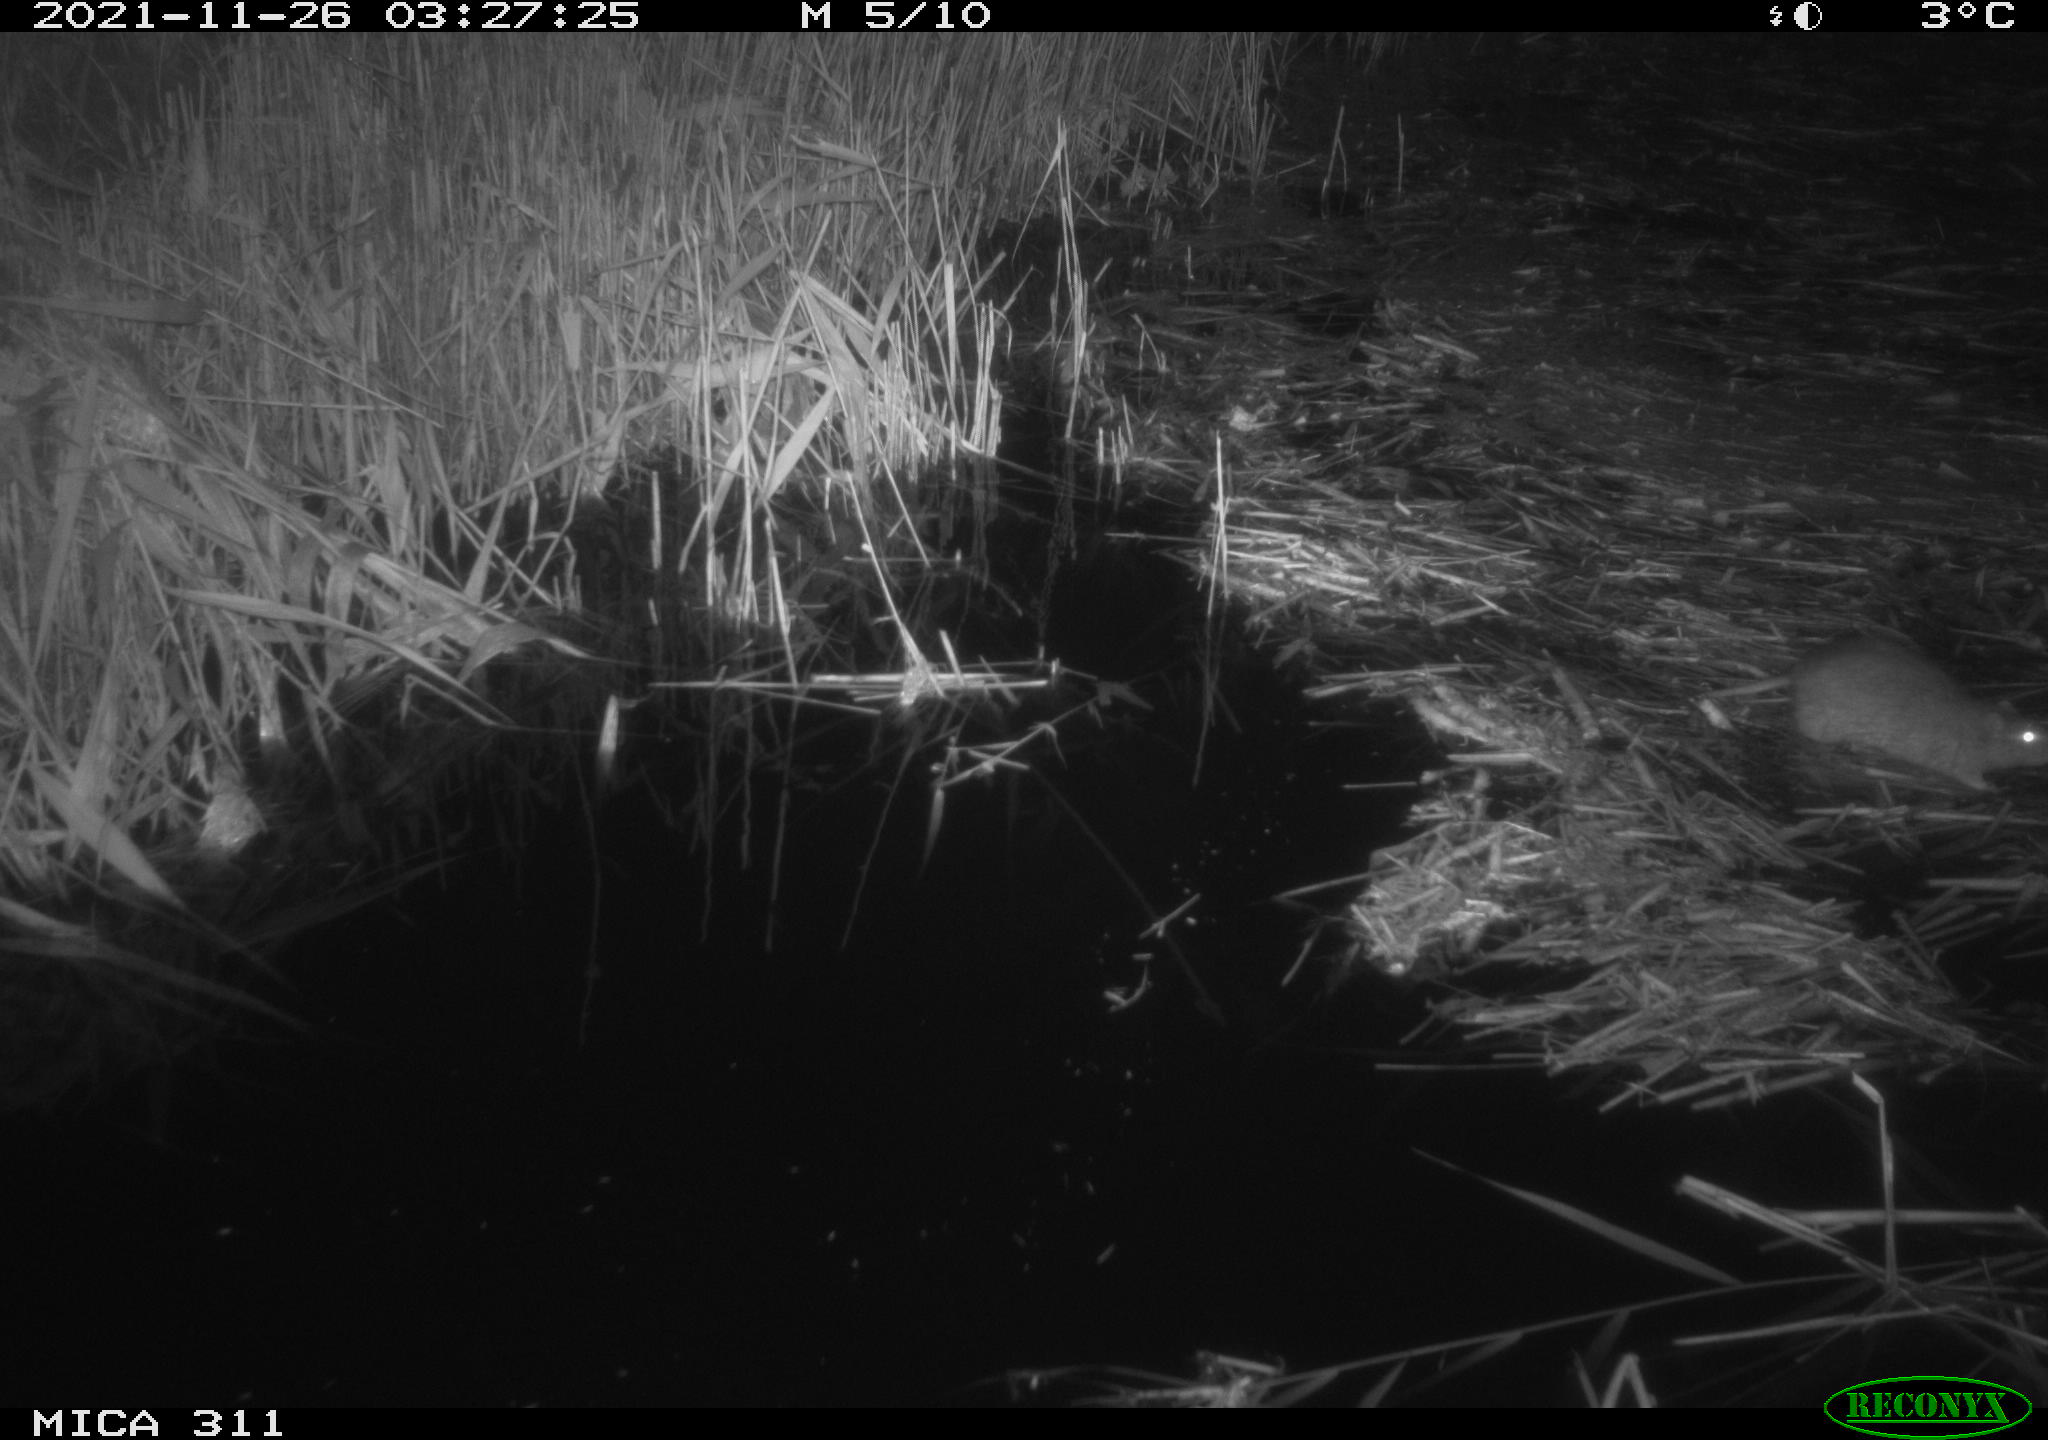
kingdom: Animalia
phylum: Chordata
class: Mammalia
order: Rodentia
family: Muridae
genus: Rattus
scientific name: Rattus norvegicus
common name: Brown rat
